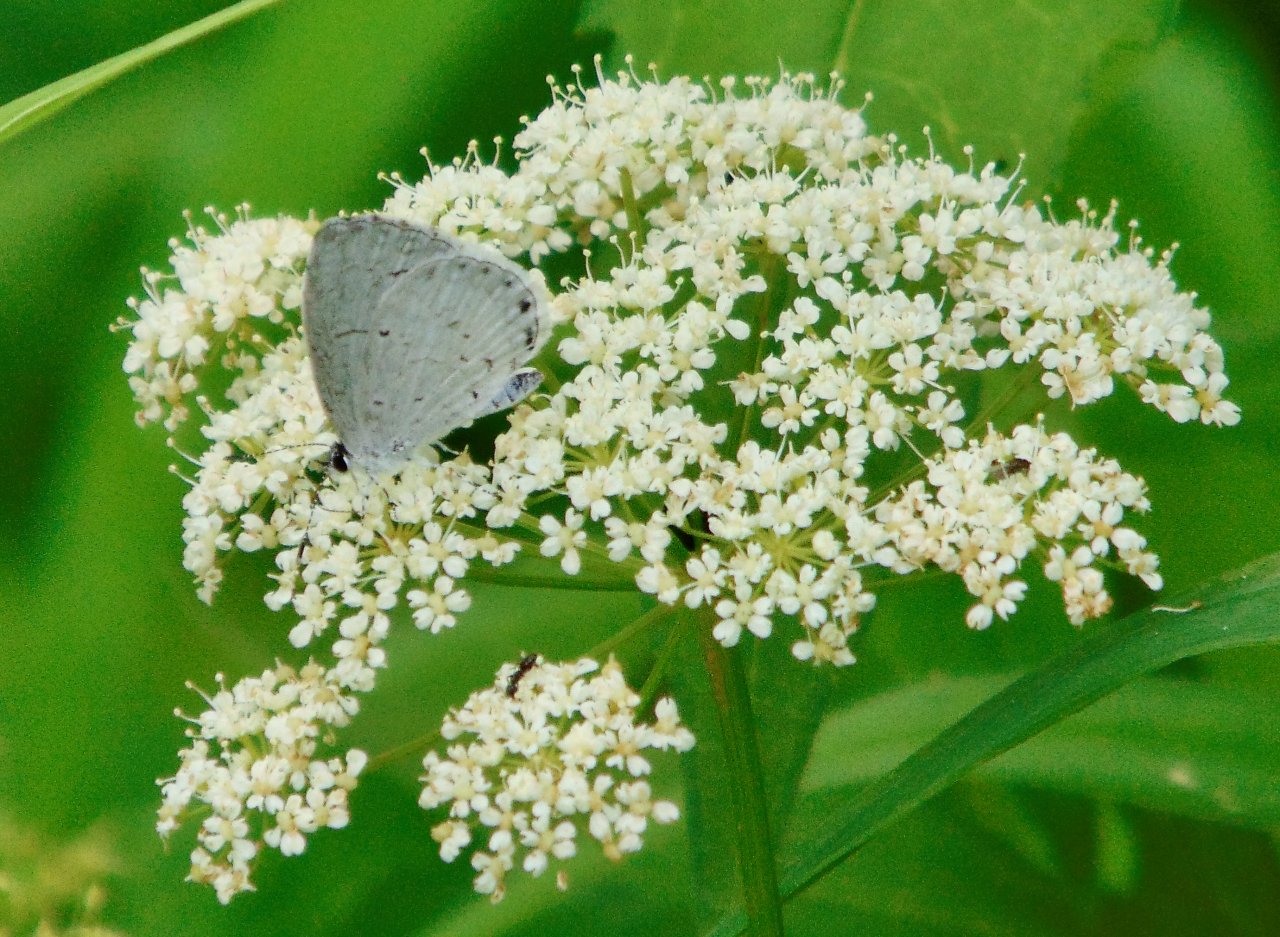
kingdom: Animalia
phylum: Arthropoda
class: Insecta
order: Lepidoptera
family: Lycaenidae
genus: Cyaniris
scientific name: Cyaniris neglecta
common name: Summer Azure
